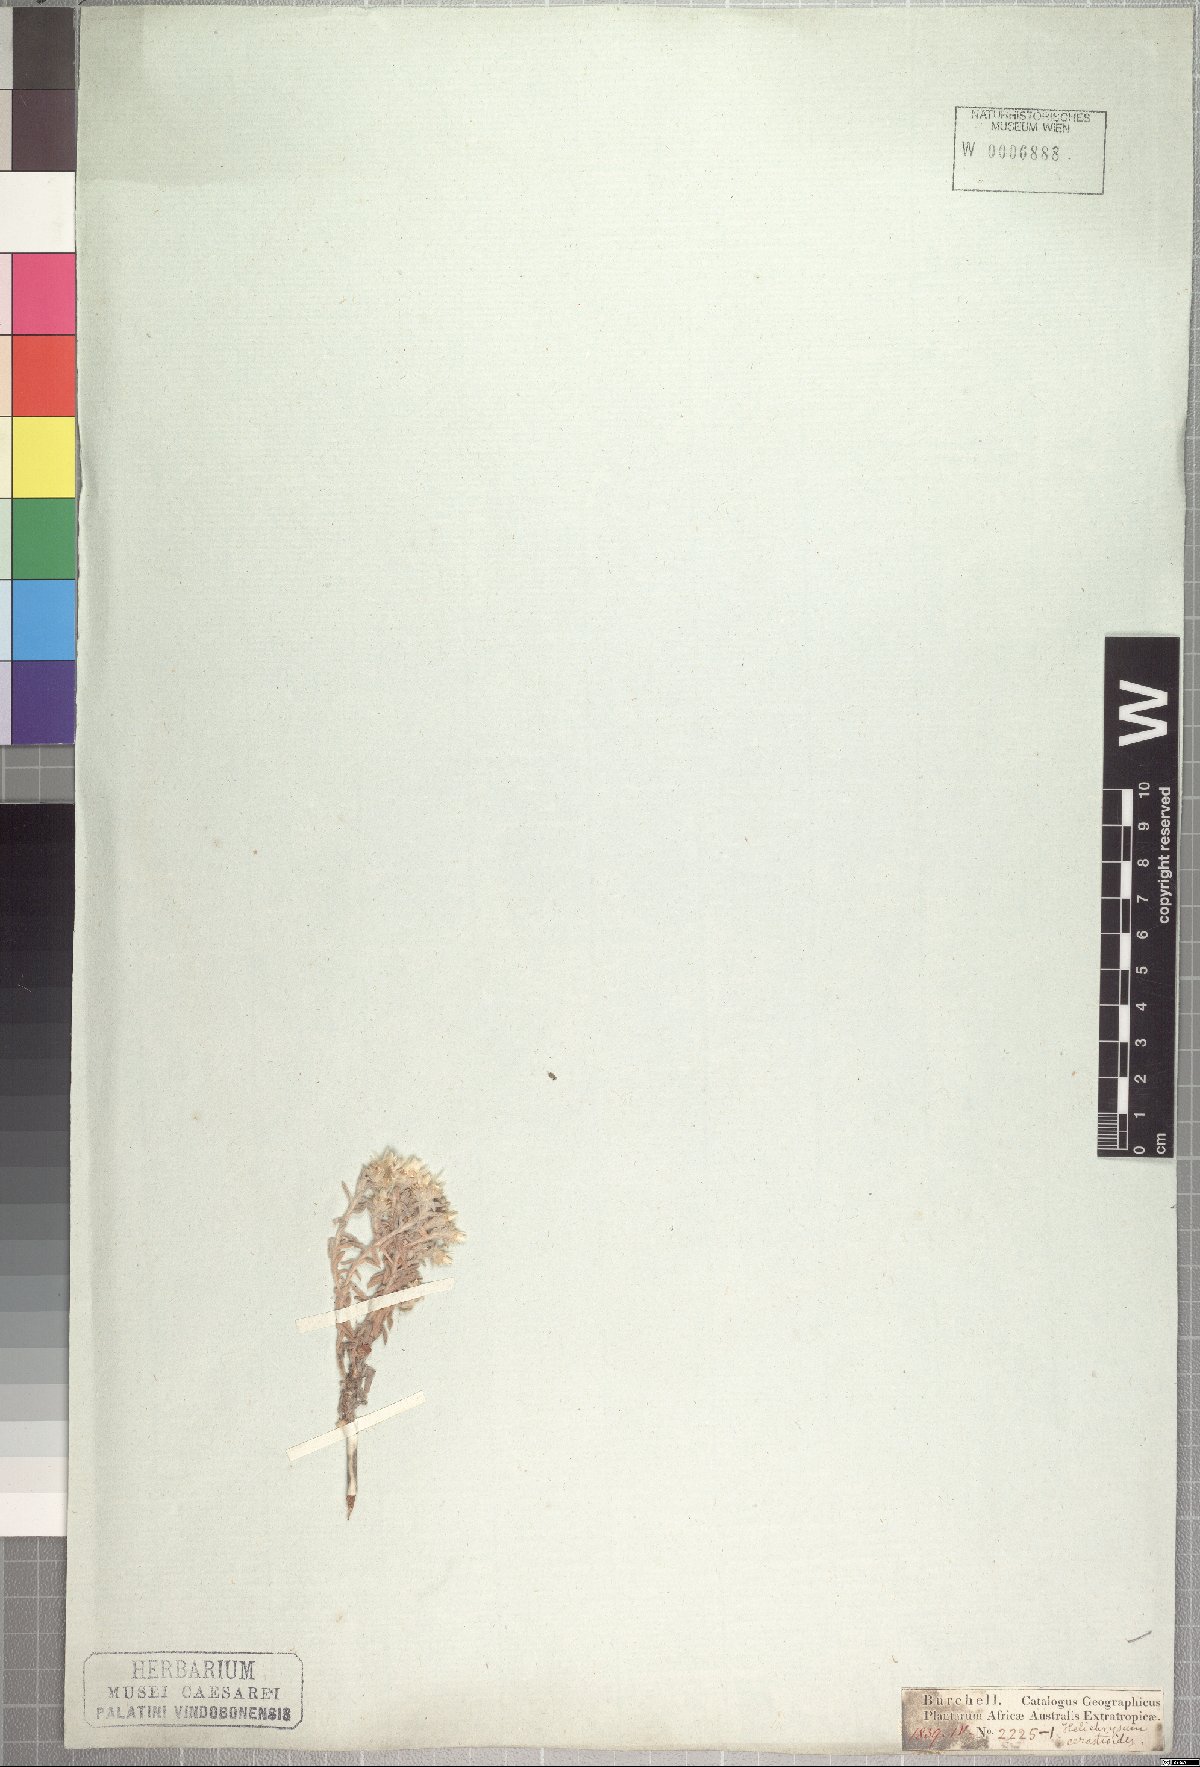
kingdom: Plantae
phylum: Tracheophyta
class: Magnoliopsida
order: Asterales
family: Asteraceae
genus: Helichrysum
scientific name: Helichrysum cerastioides
